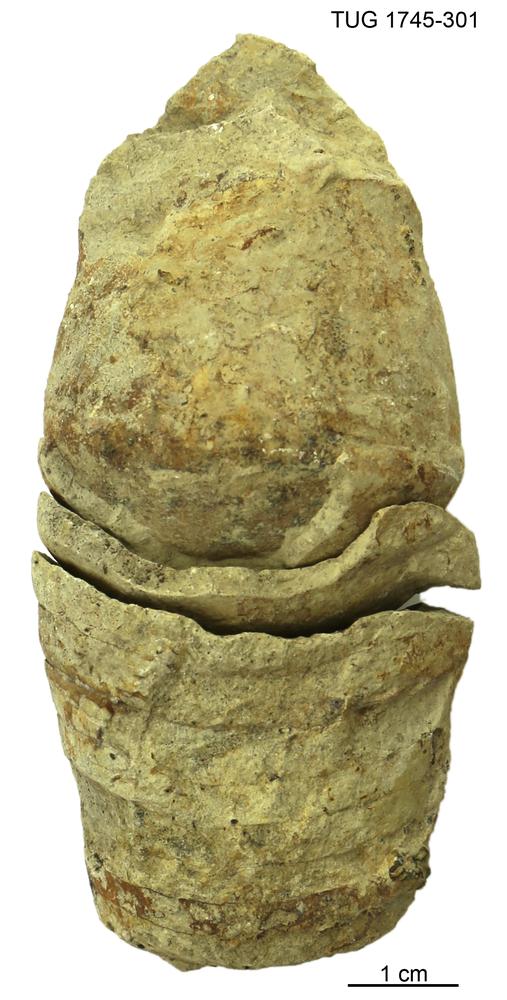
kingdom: Animalia
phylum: Mollusca
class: Cephalopoda
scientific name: Cephalopoda
